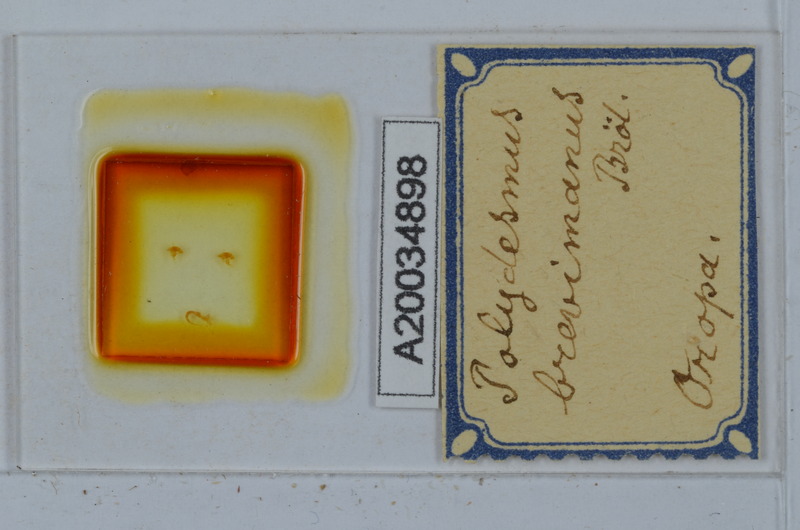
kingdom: Animalia
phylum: Arthropoda
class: Diplopoda
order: Polydesmida
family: Polydesmidae
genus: Polydesmus
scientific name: Polydesmus brevimanus
